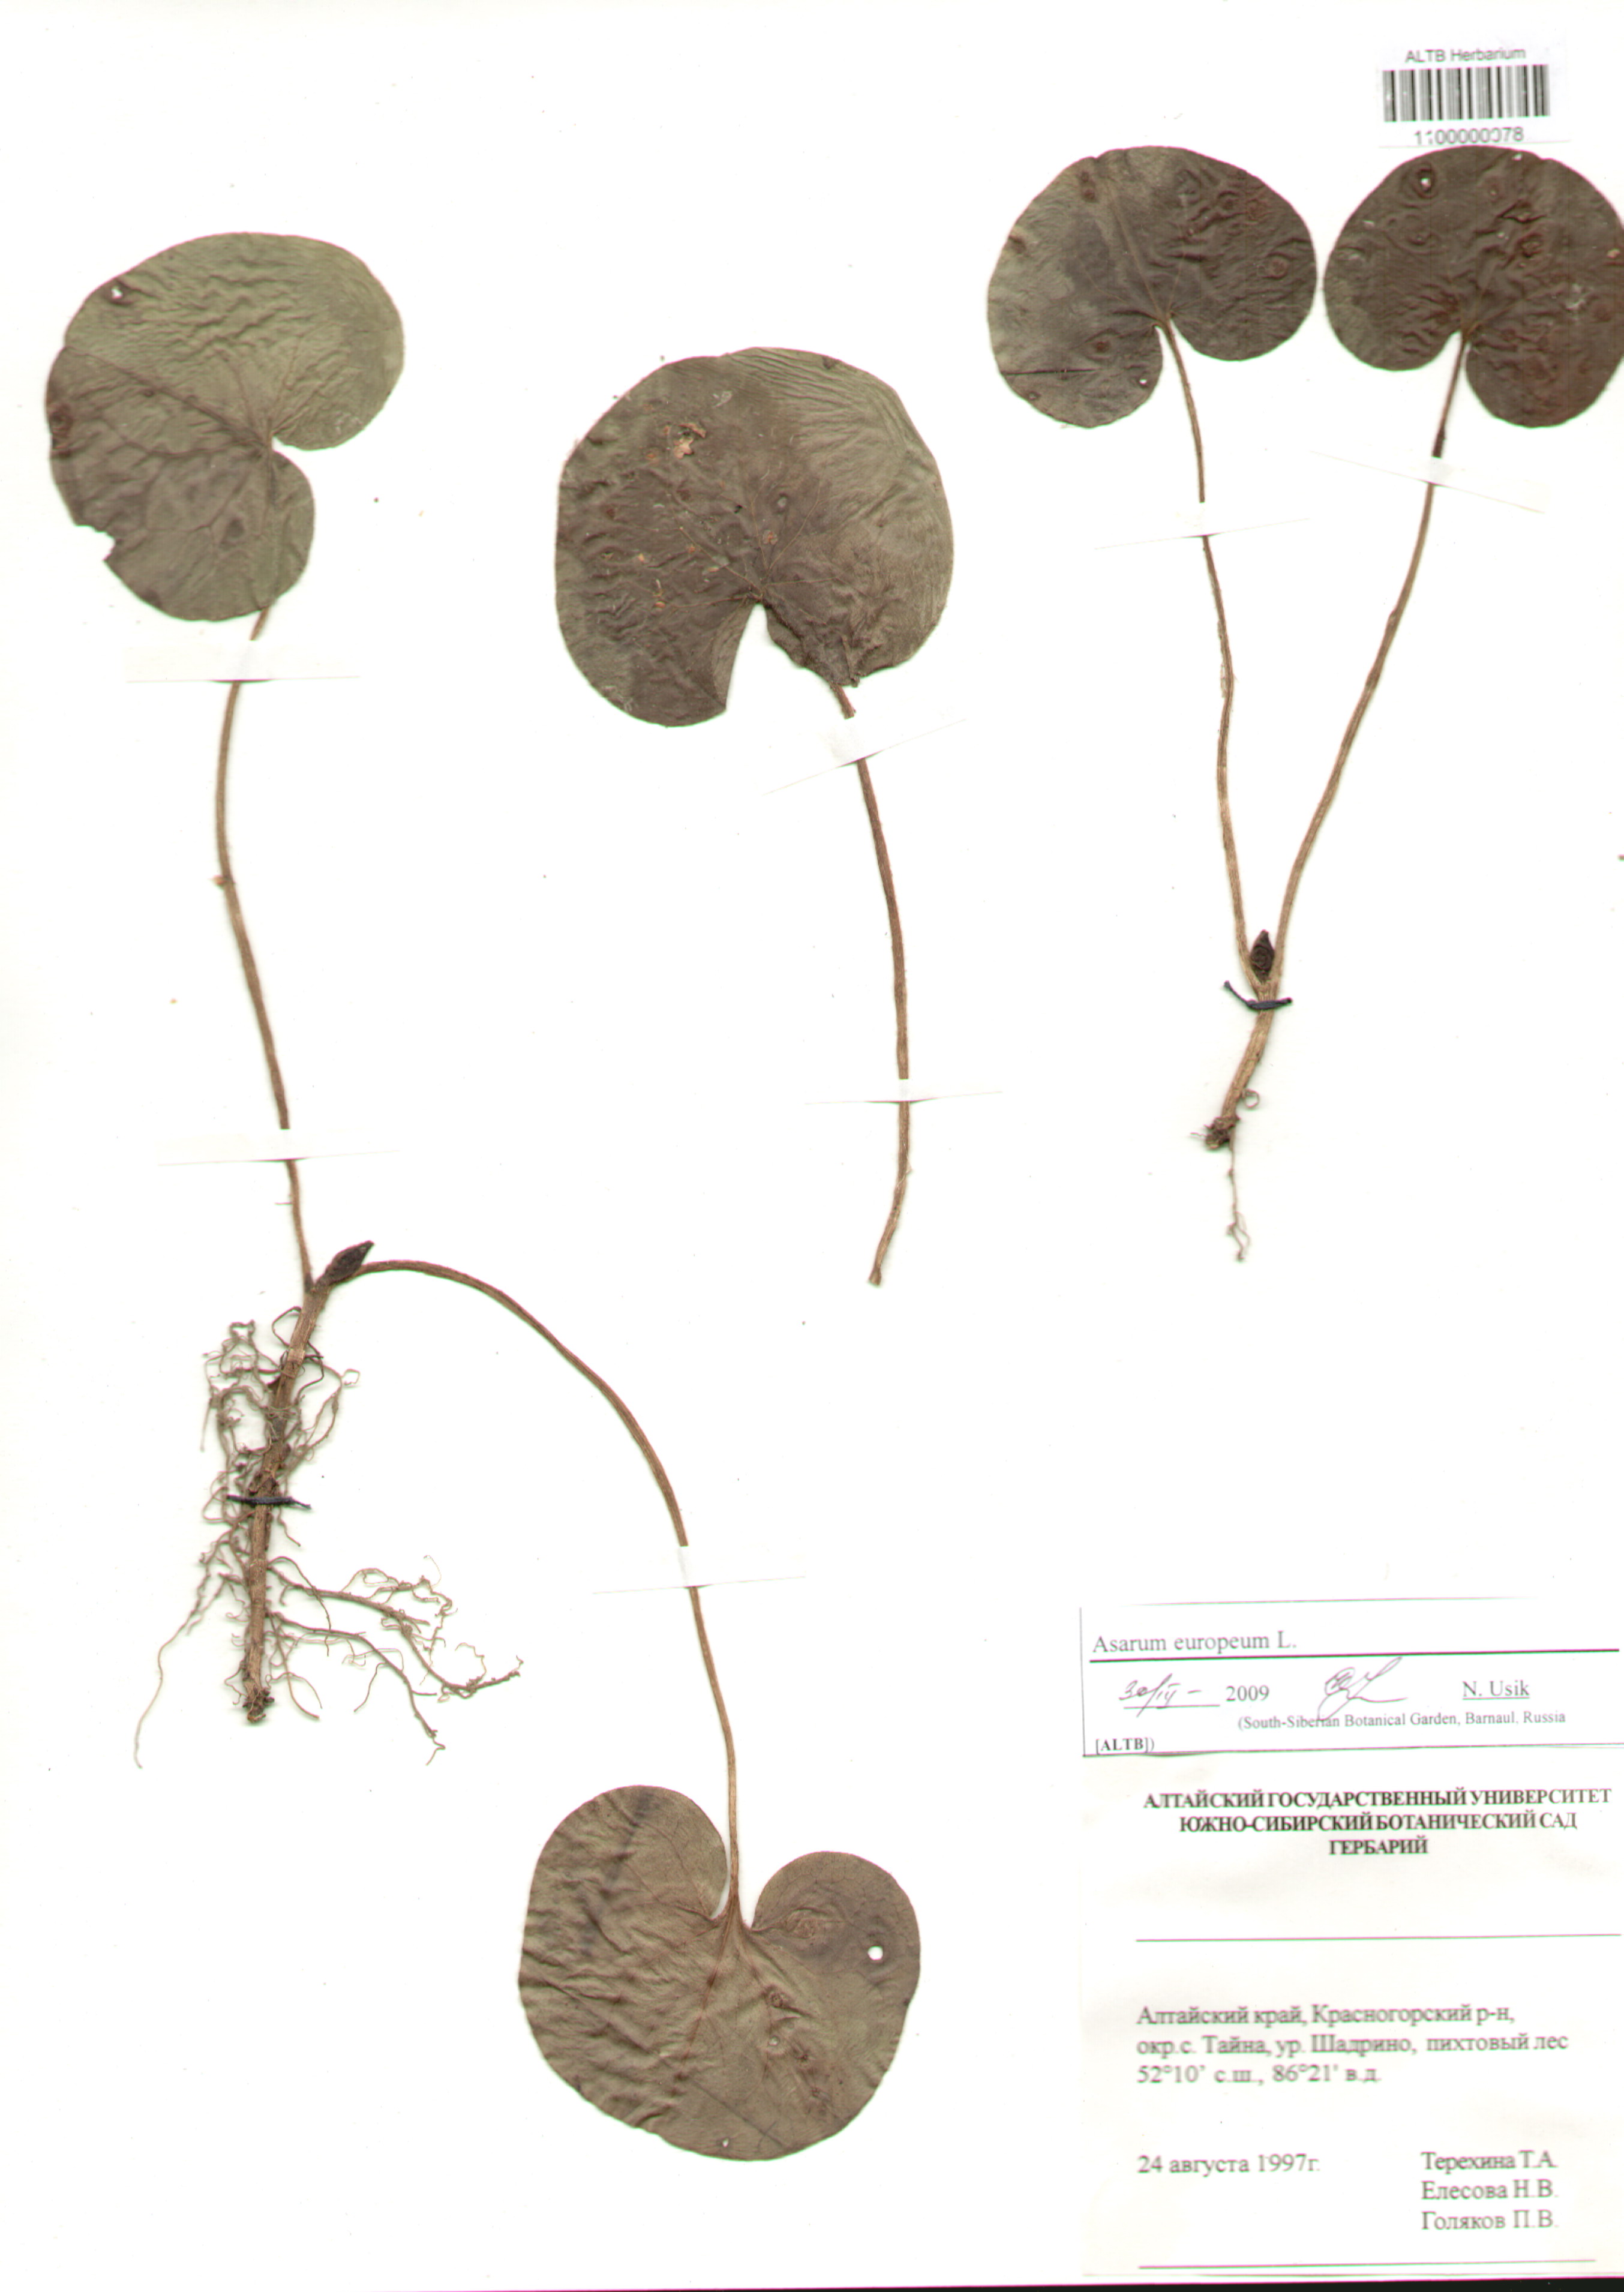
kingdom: Plantae
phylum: Tracheophyta
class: Magnoliopsida
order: Piperales
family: Aristolochiaceae
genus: Asarum
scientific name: Asarum europaeum
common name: Asarabacca
